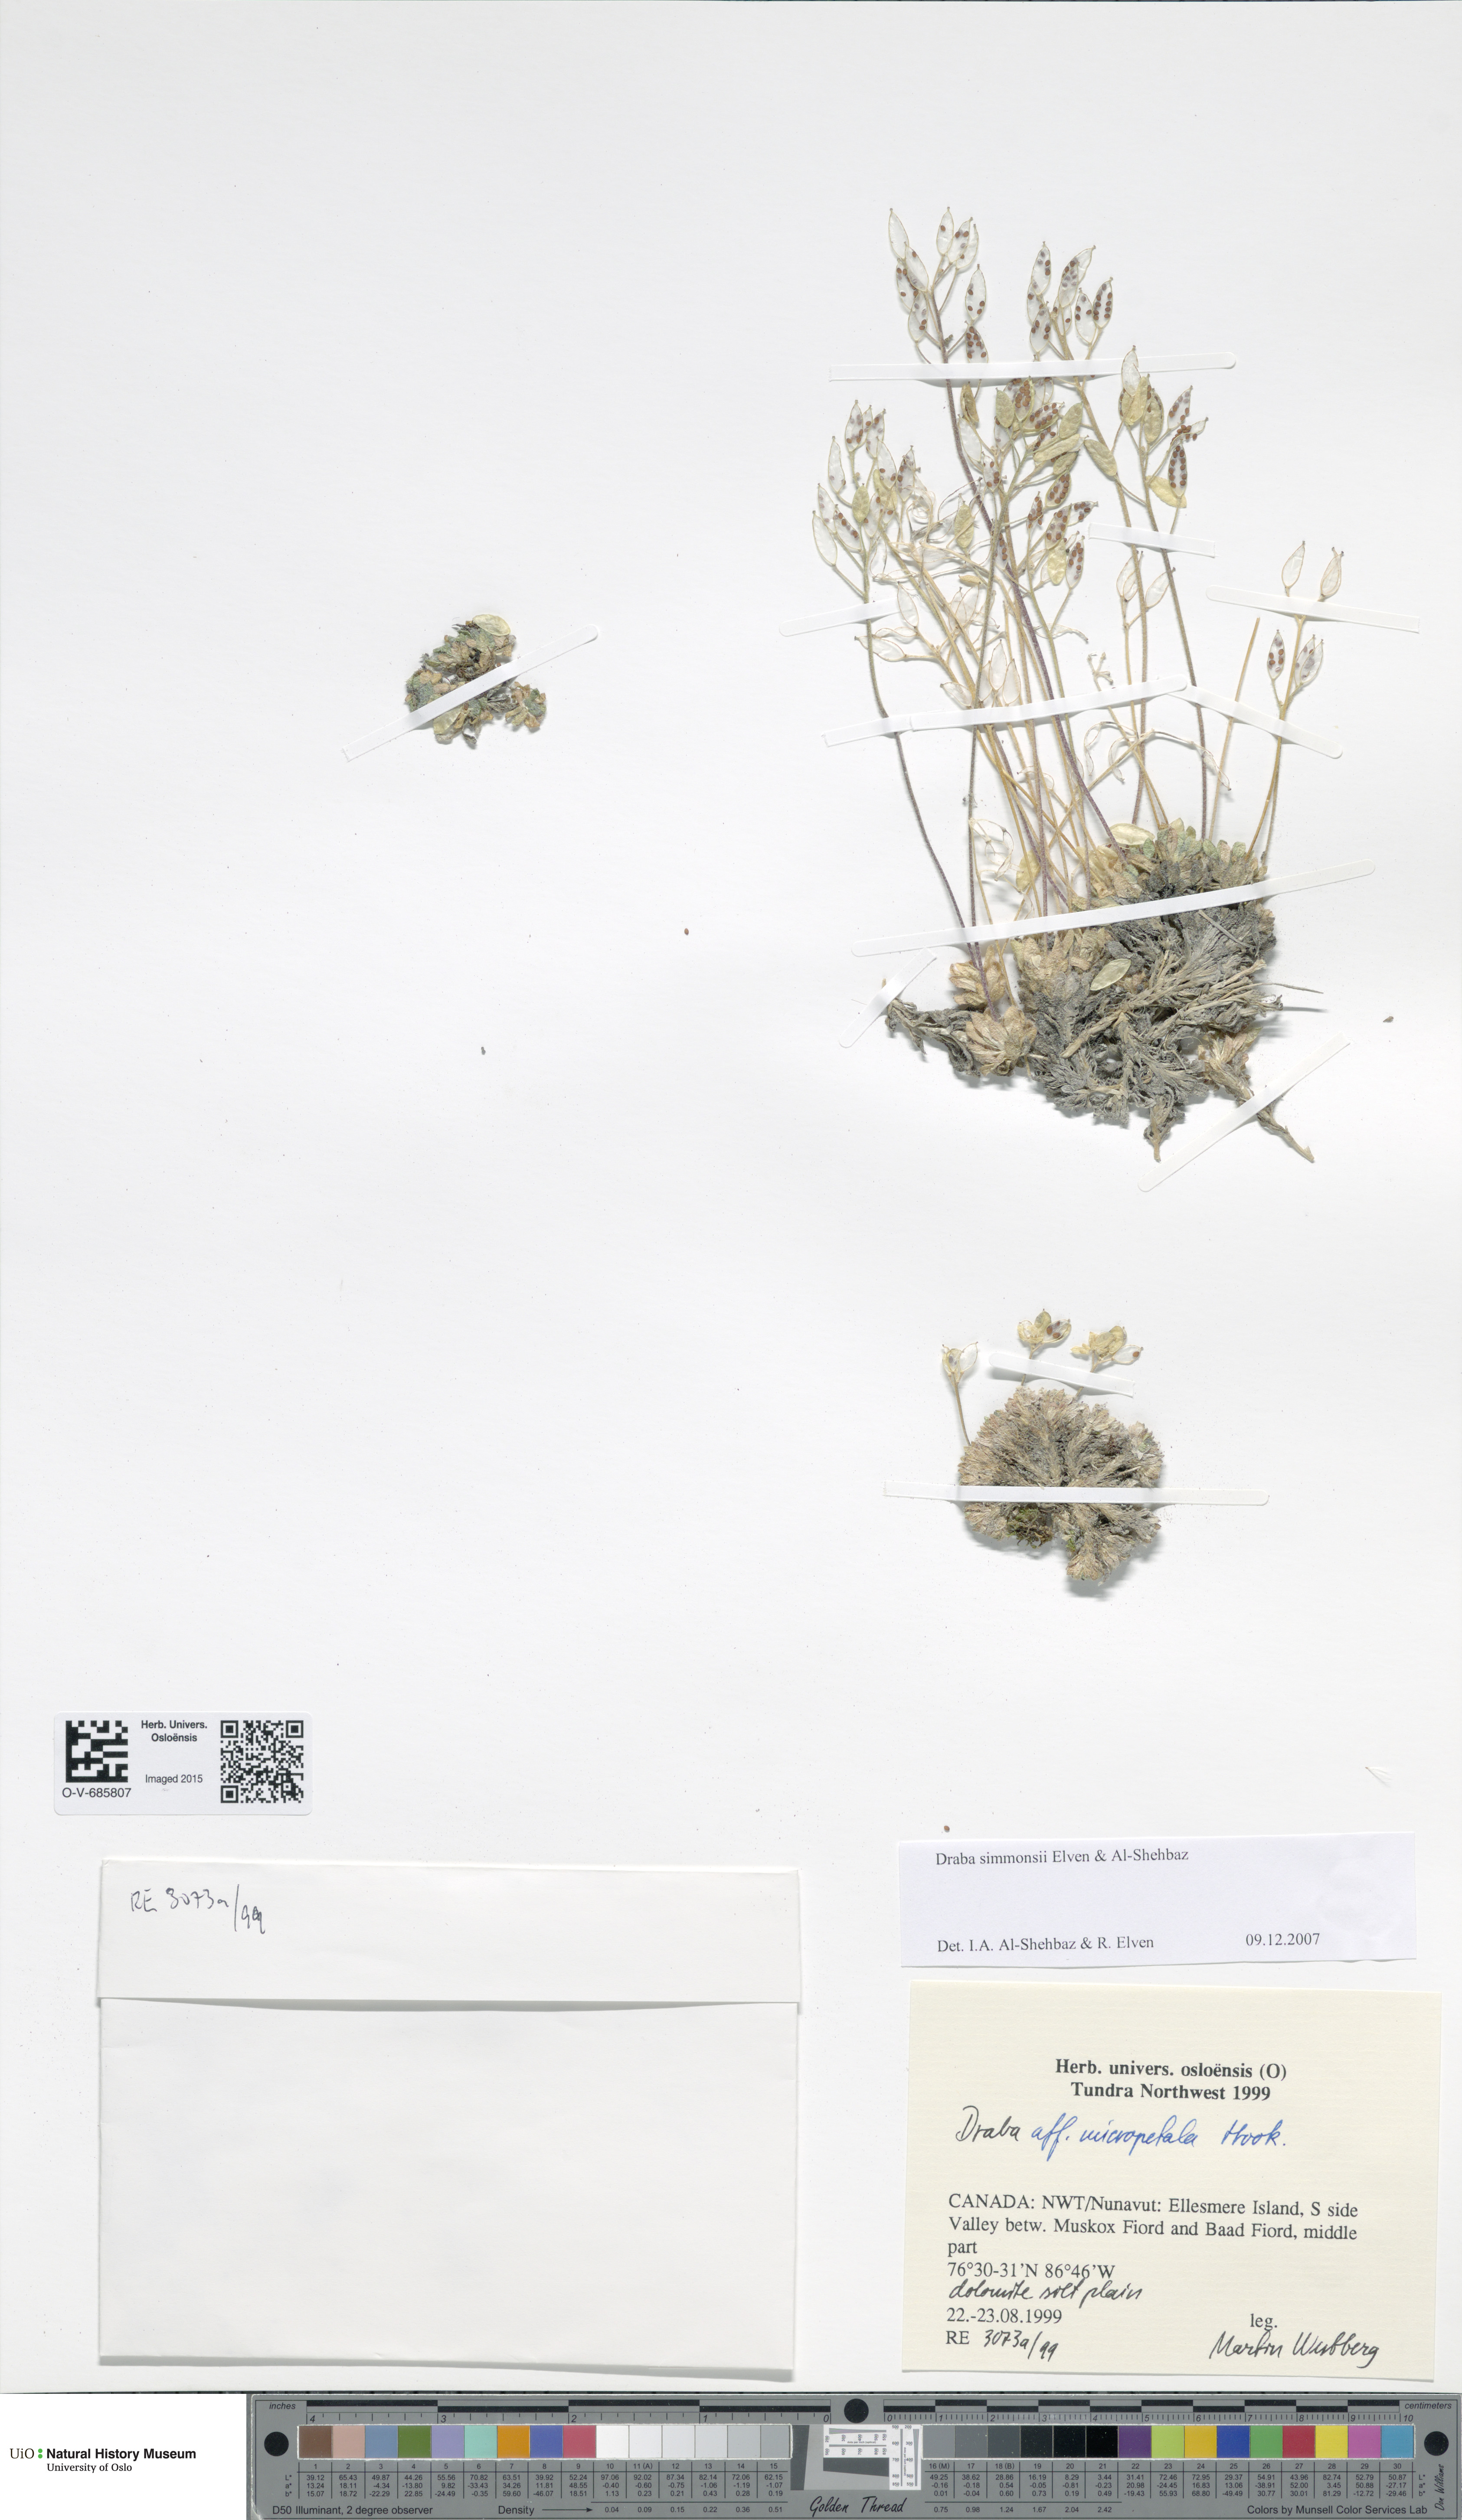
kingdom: Plantae
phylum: Tracheophyta
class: Magnoliopsida
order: Brassicales
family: Brassicaceae
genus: Draba
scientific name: Draba simmonsii
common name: Simmonds' whitlow-grass
